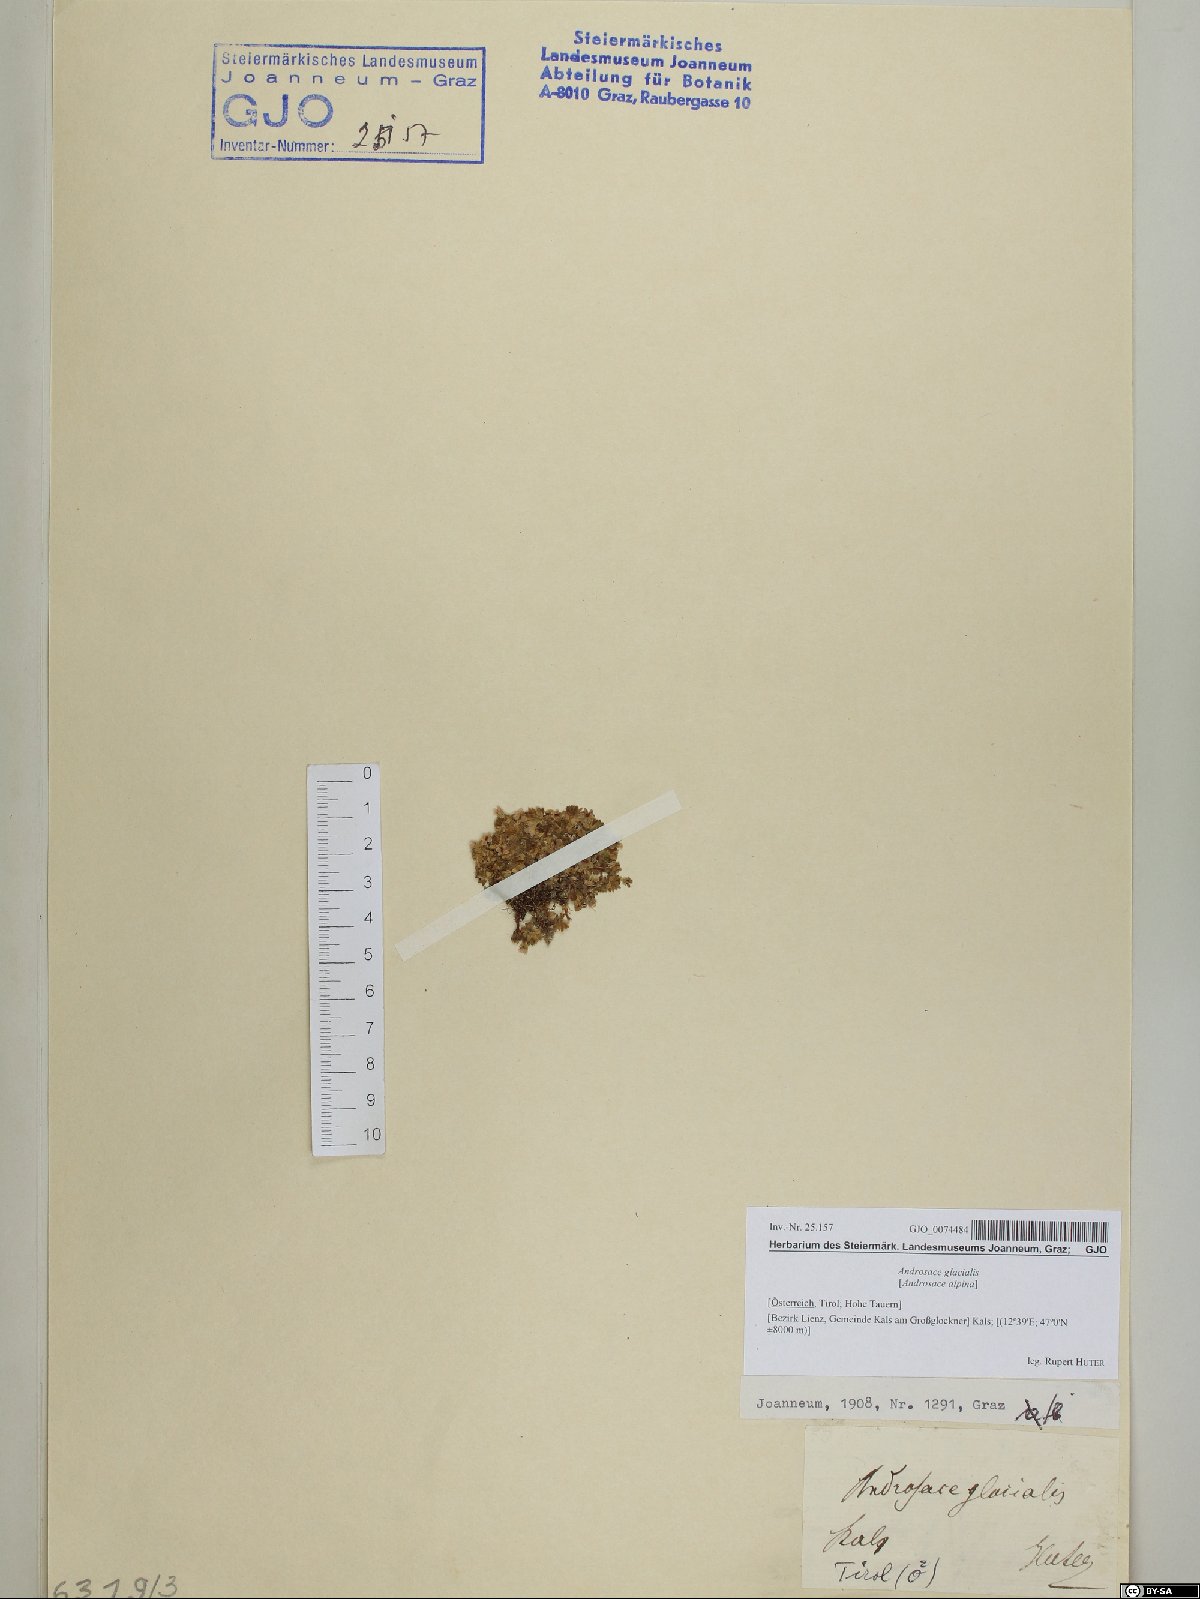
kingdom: Plantae
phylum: Tracheophyta
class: Magnoliopsida
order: Ericales
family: Primulaceae
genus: Androsace
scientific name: Androsace alpina
